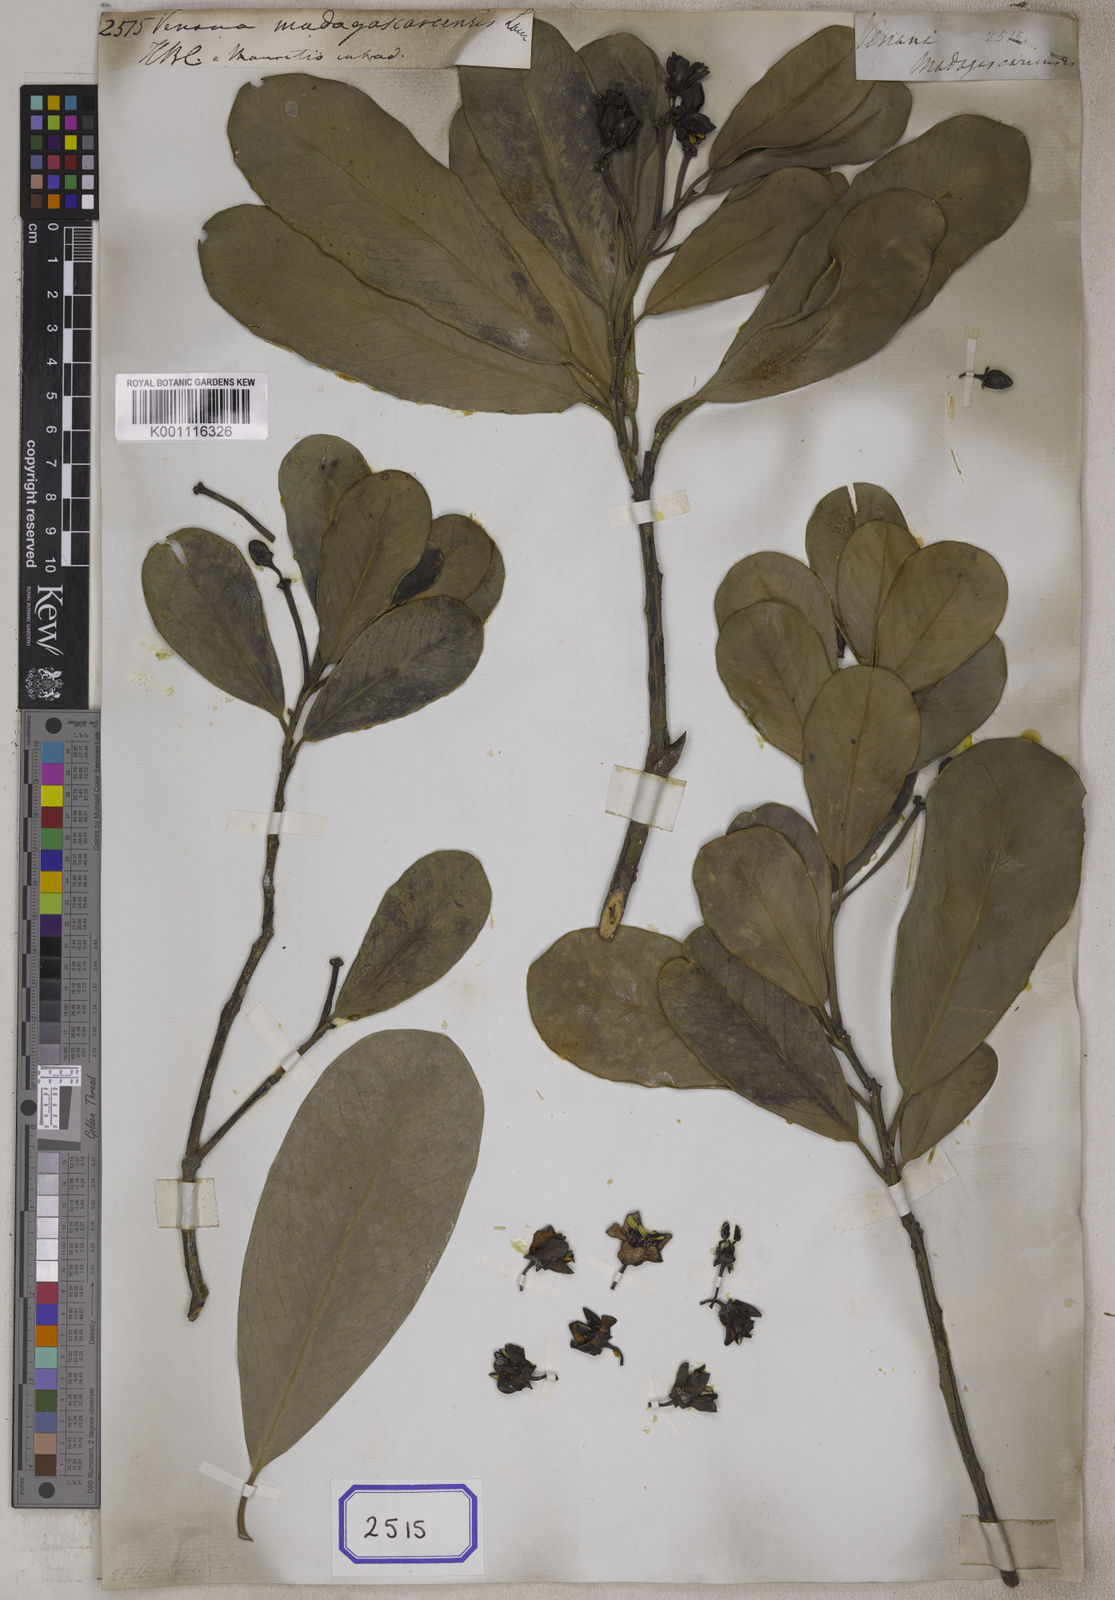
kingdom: Plantae
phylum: Tracheophyta
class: Magnoliopsida
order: Celastrales
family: Celastraceae
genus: Brexia
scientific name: Brexia madagascariensis
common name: Brexia
